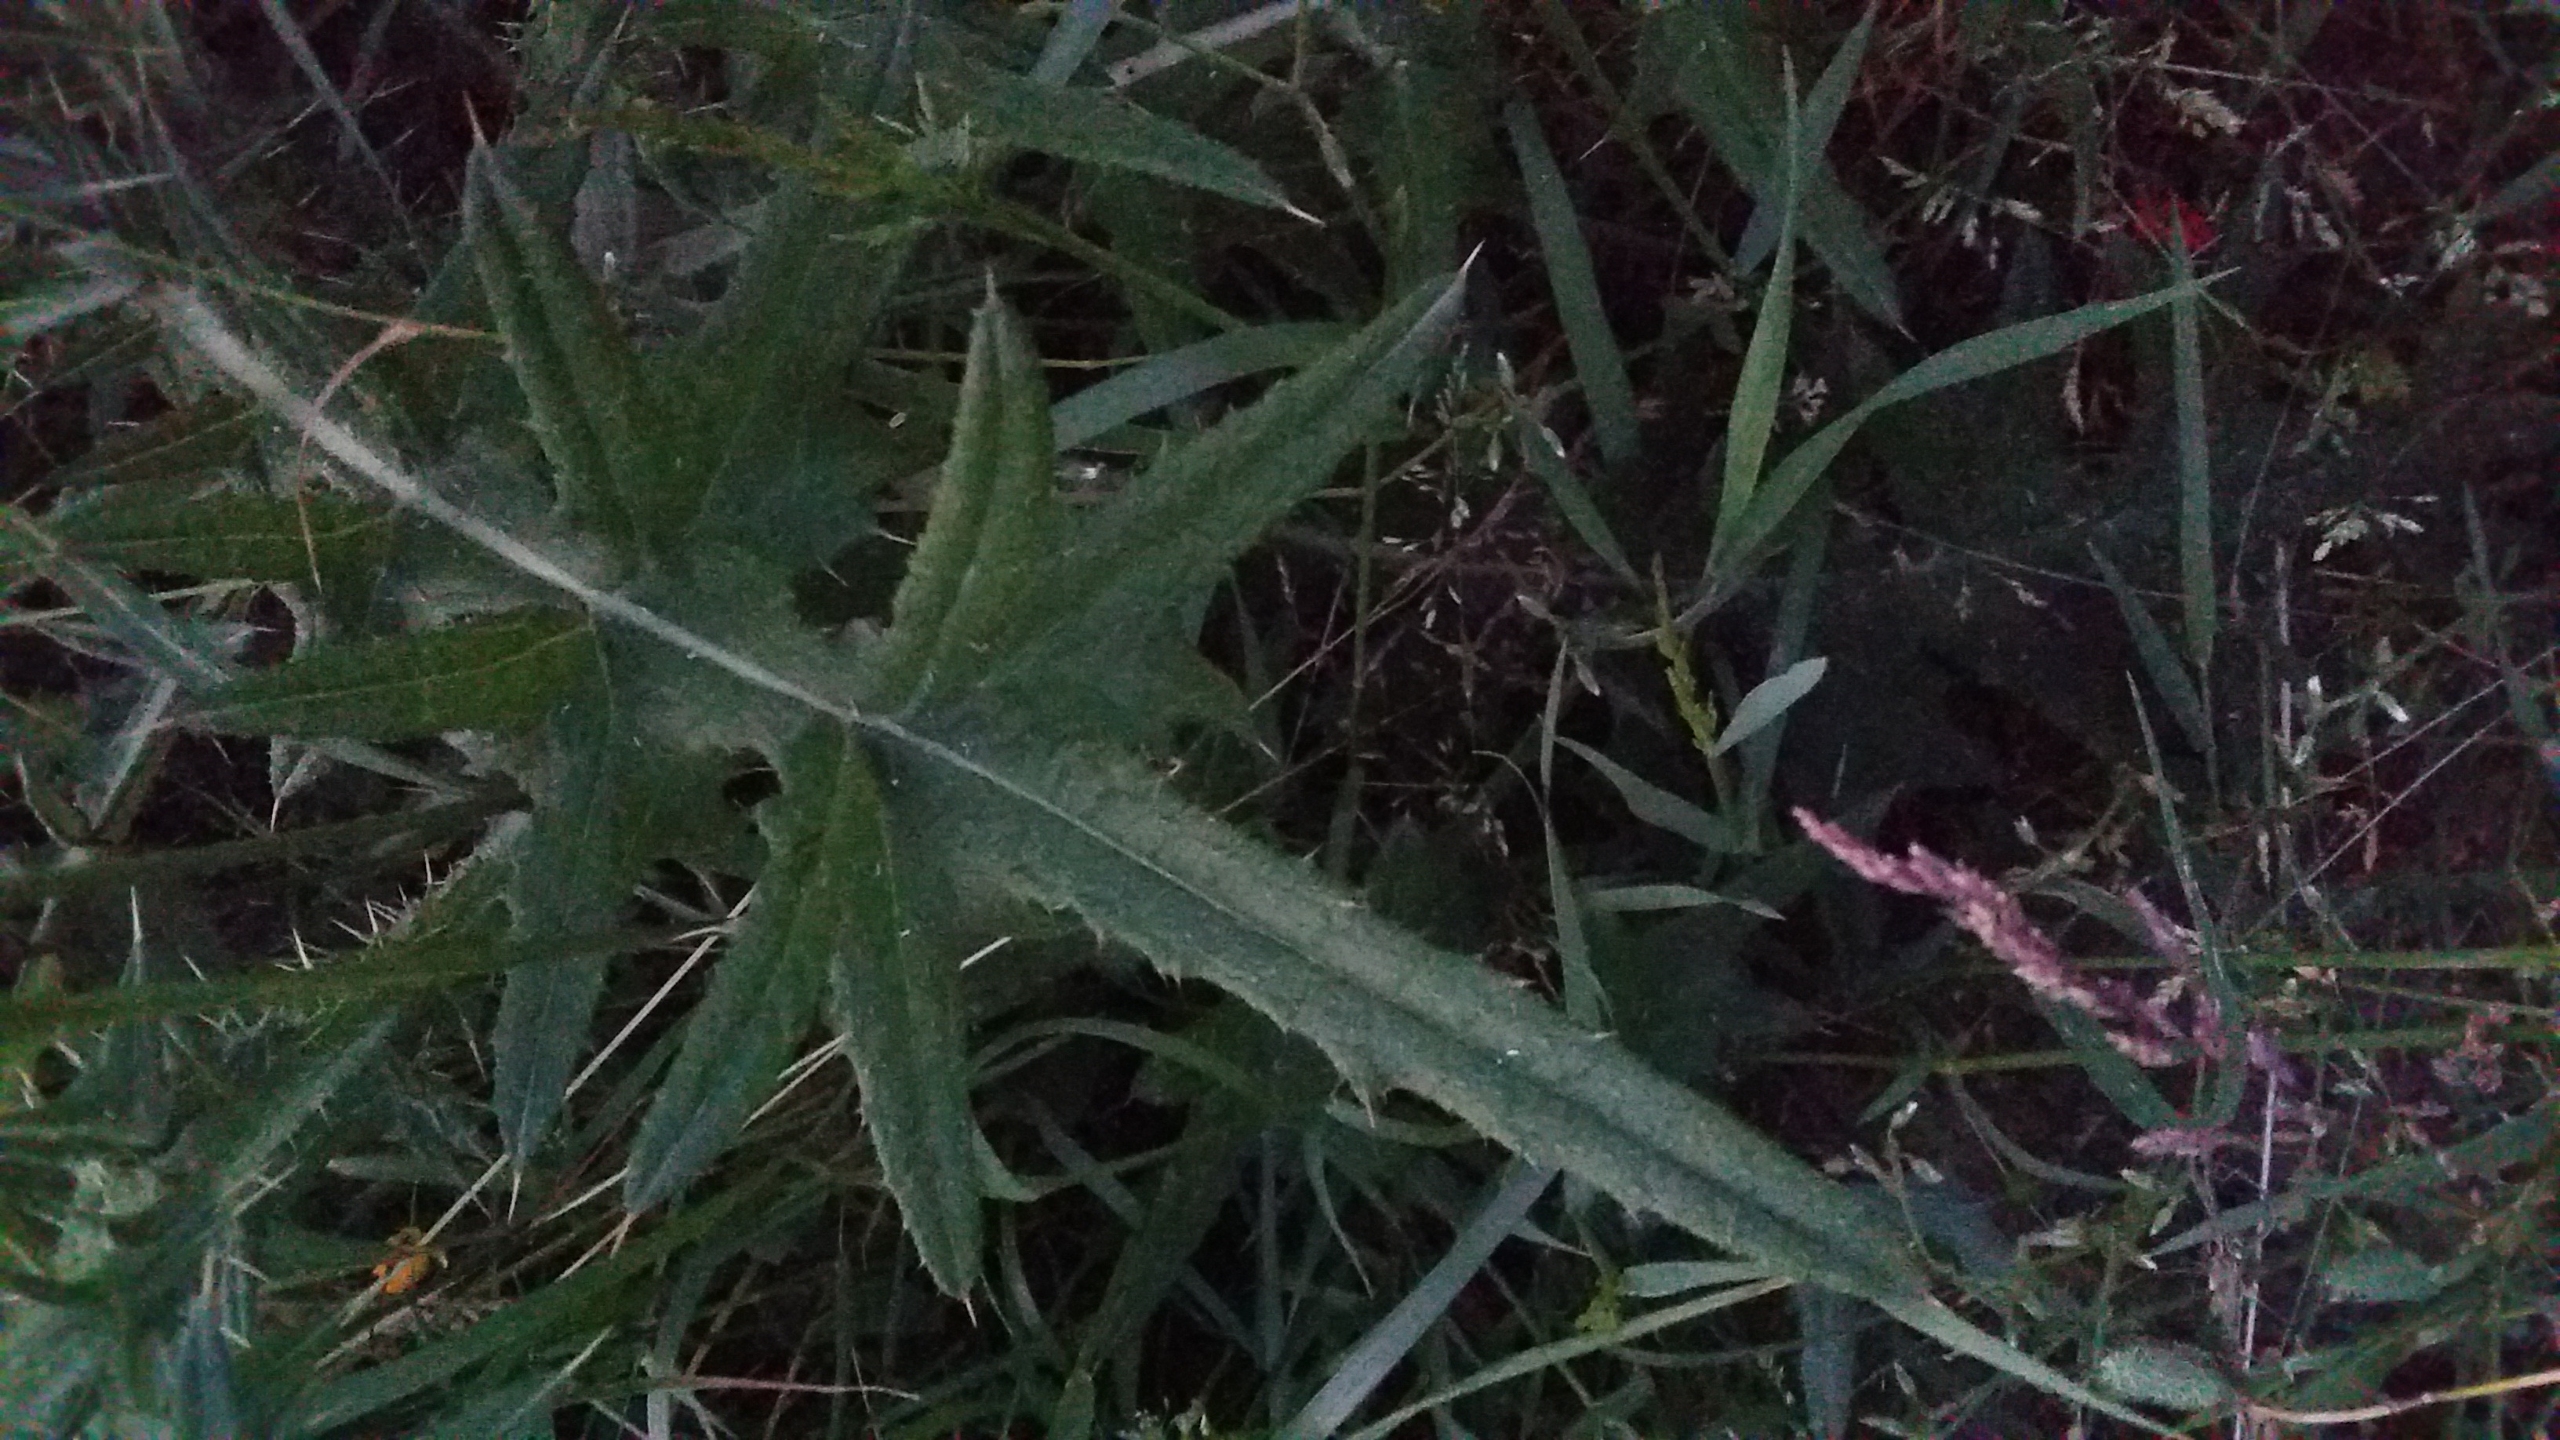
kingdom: Plantae
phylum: Tracheophyta
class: Magnoliopsida
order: Asterales
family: Asteraceae
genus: Cirsium
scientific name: Cirsium vulgare
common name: Horse-tidsel
